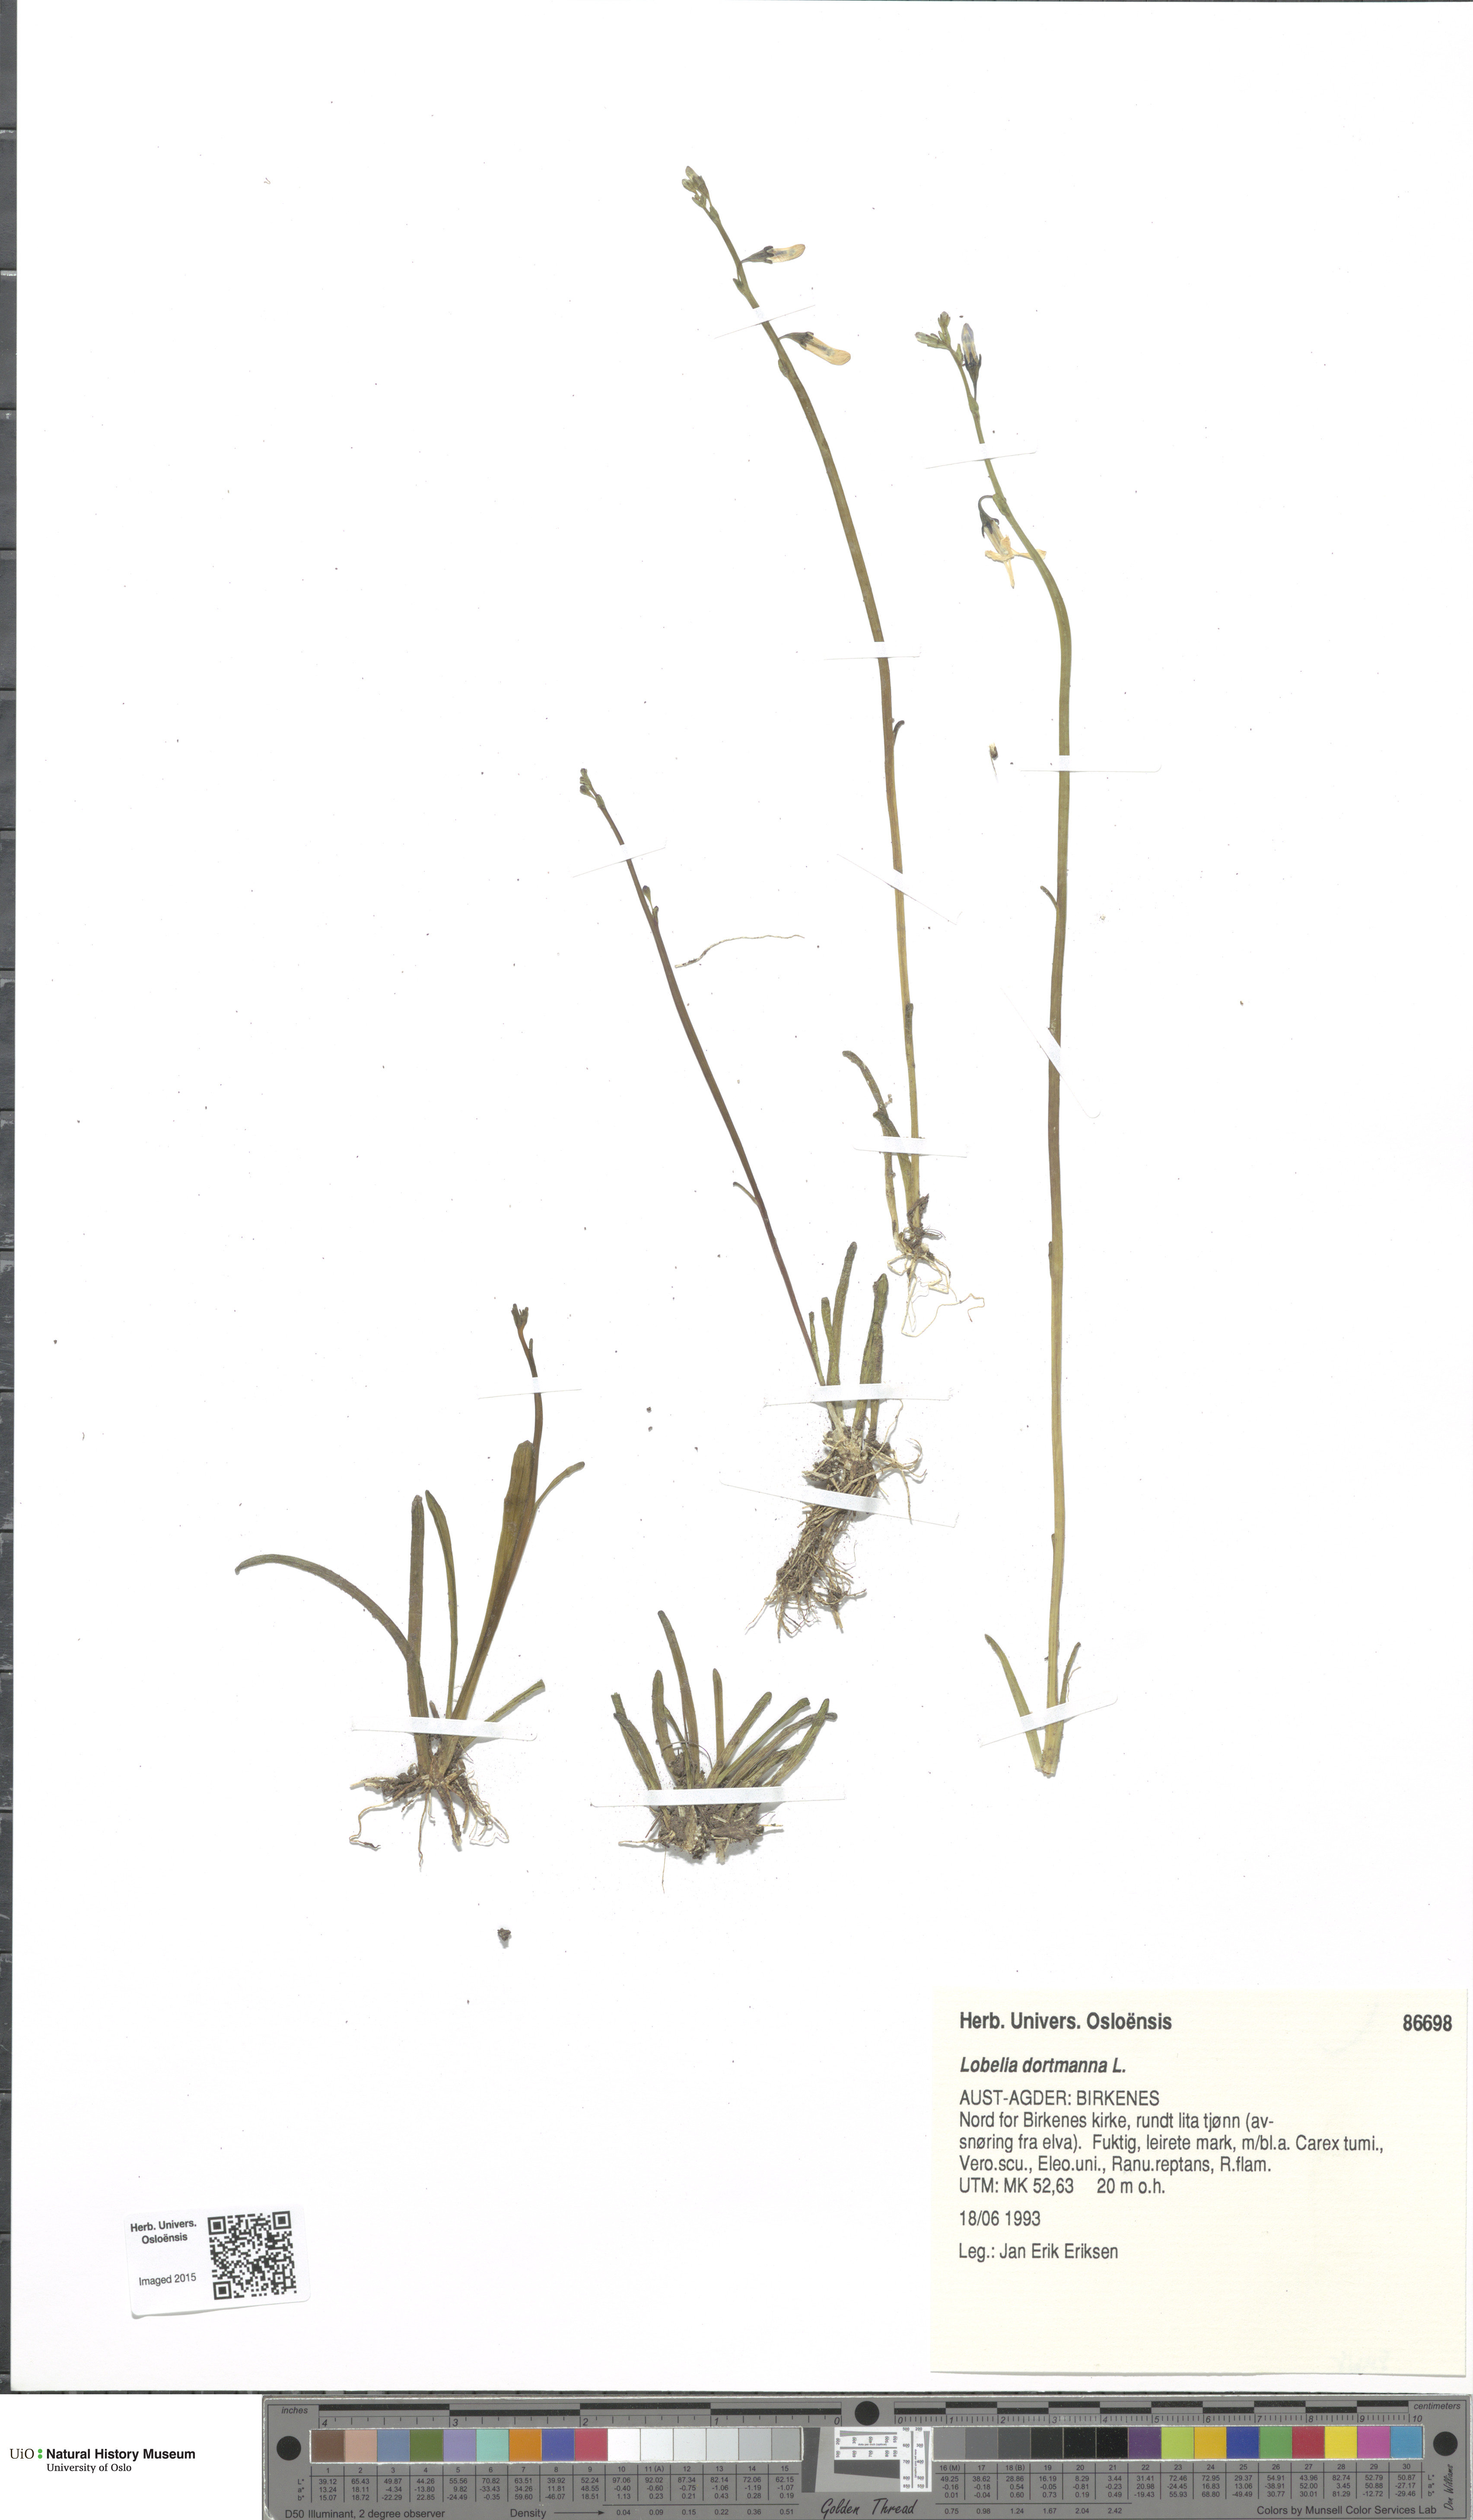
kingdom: Plantae
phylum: Tracheophyta
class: Magnoliopsida
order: Asterales
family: Campanulaceae
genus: Lobelia
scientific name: Lobelia dortmanna
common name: Water lobelia
